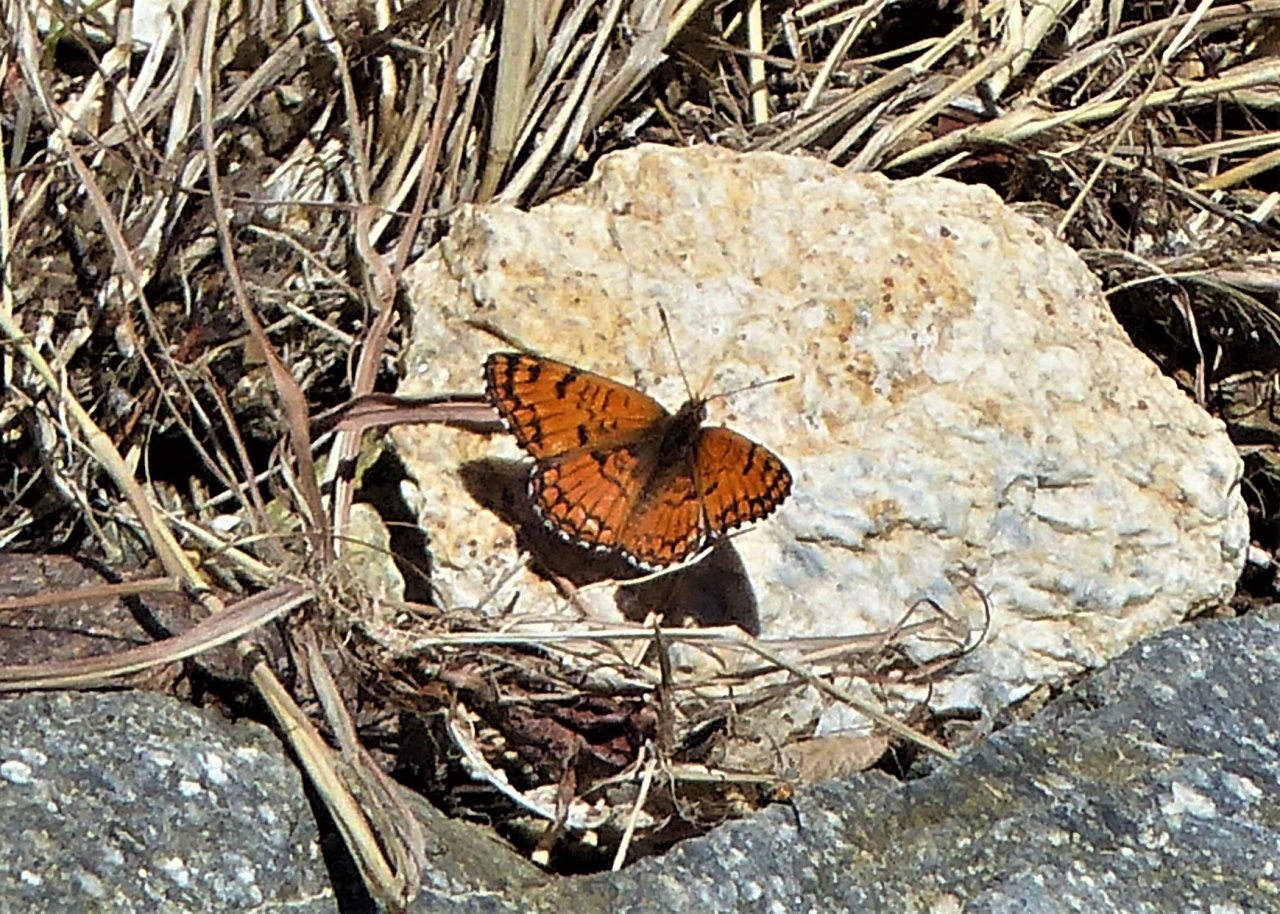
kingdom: Animalia
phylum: Arthropoda
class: Insecta
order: Lepidoptera
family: Nymphalidae
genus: Chlosyne
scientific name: Chlosyne acastus
